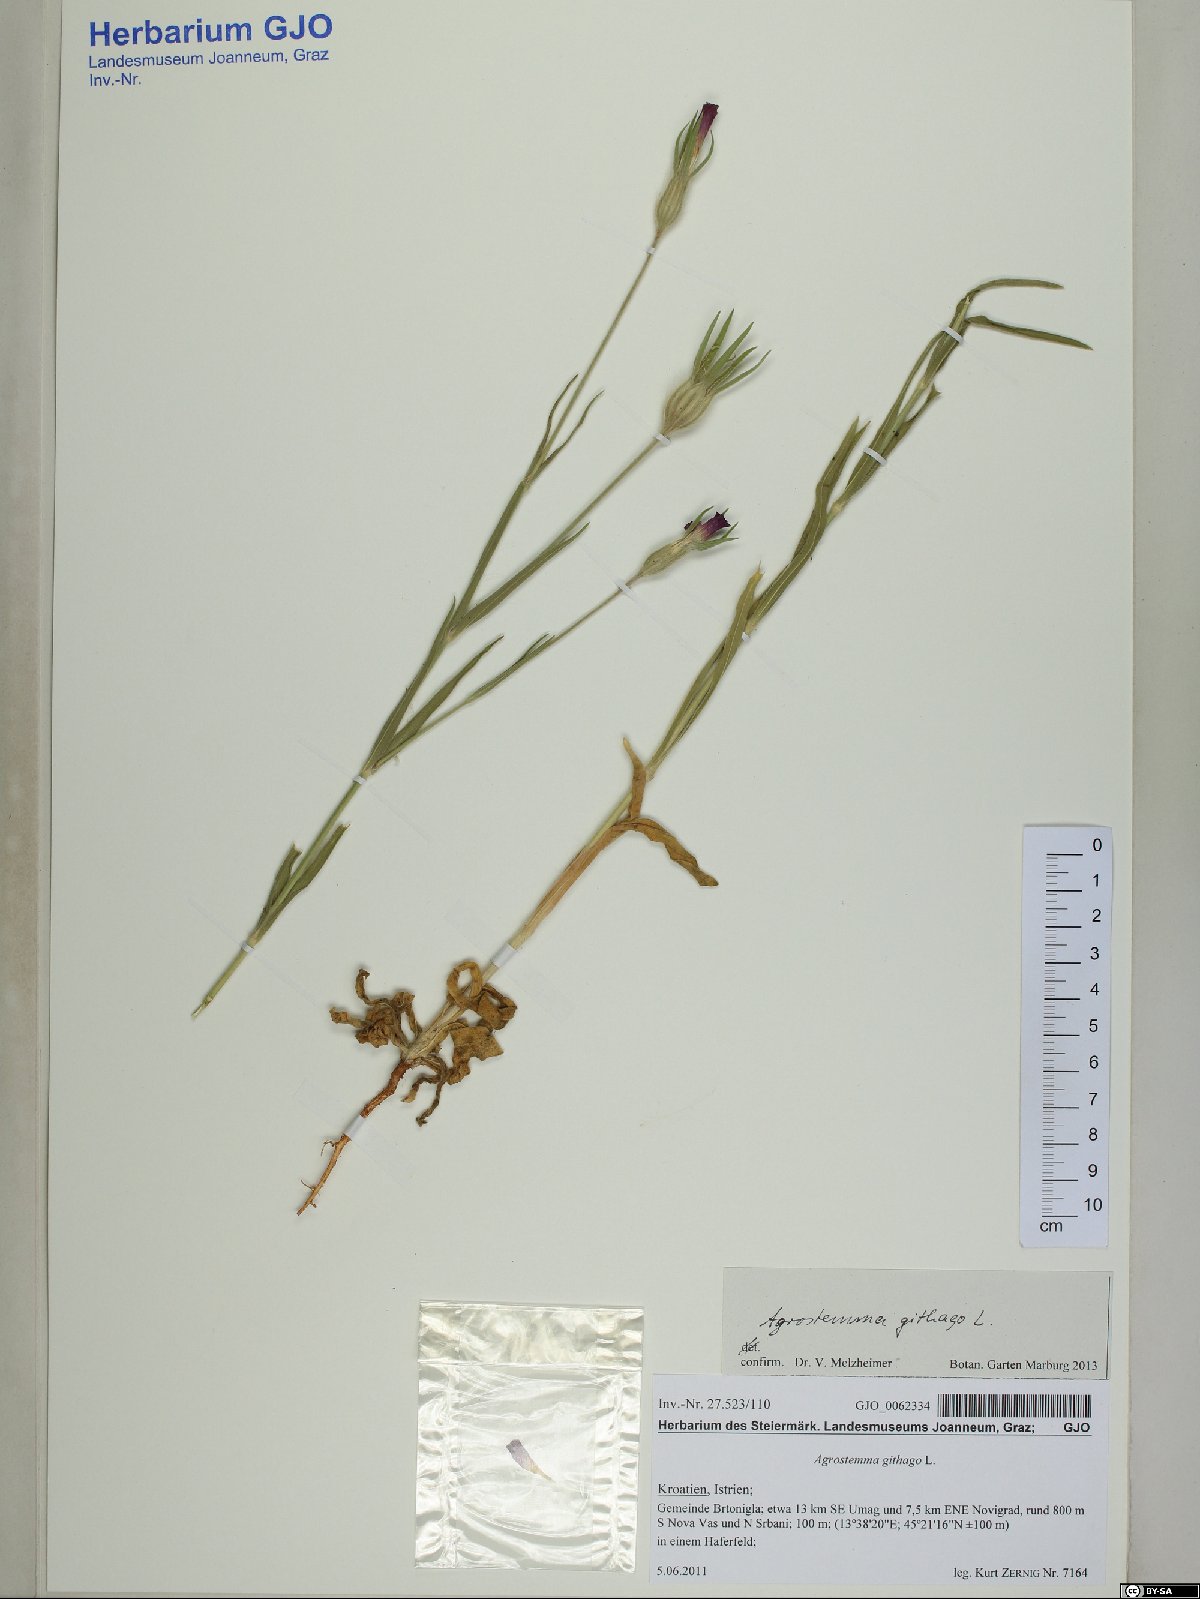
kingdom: Plantae
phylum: Tracheophyta
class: Magnoliopsida
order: Caryophyllales
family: Caryophyllaceae
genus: Agrostemma
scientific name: Agrostemma githago
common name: Common corncockle
